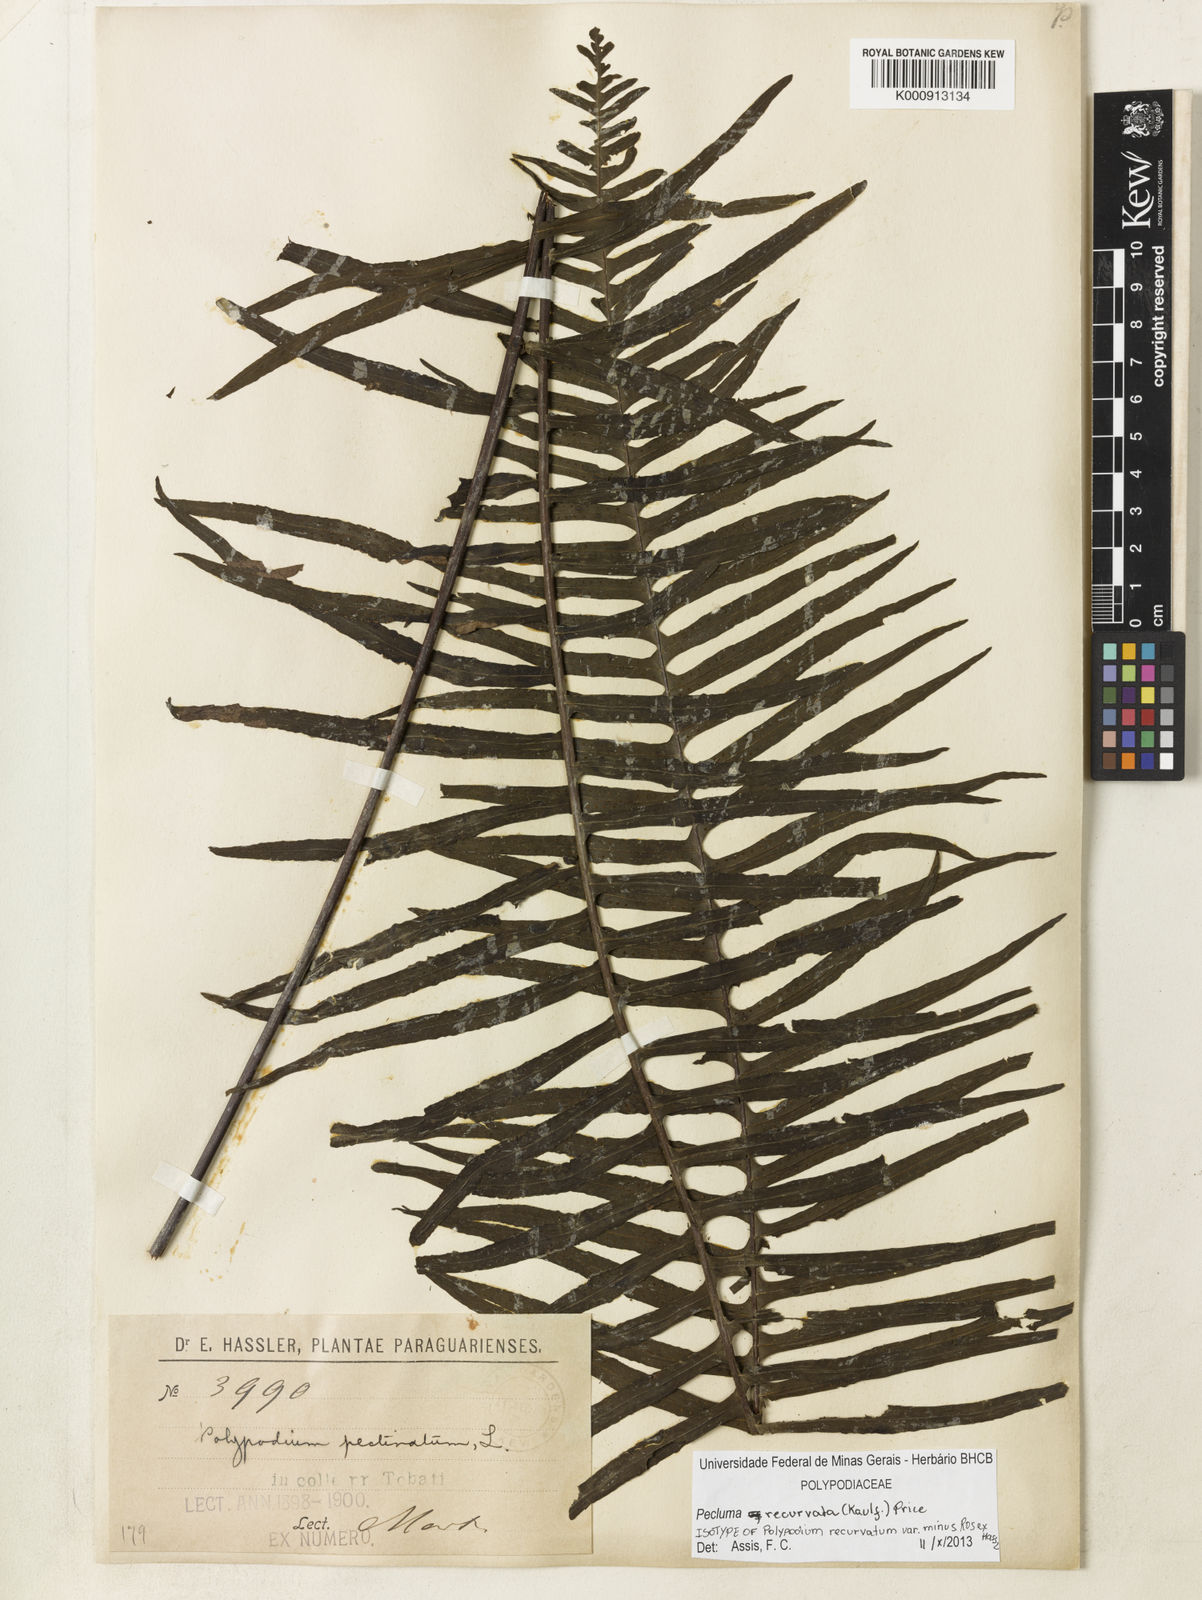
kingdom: Plantae
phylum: Tracheophyta
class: Polypodiopsida
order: Polypodiales
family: Polypodiaceae
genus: Pecluma
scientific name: Pecluma recurvata
